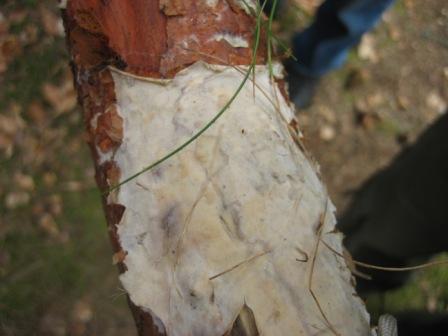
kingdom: Fungi
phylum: Basidiomycota
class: Agaricomycetes
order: Polyporales
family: Phanerochaetaceae
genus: Phlebiopsis
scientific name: Phlebiopsis gigantea
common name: kæmpebarksvamp
